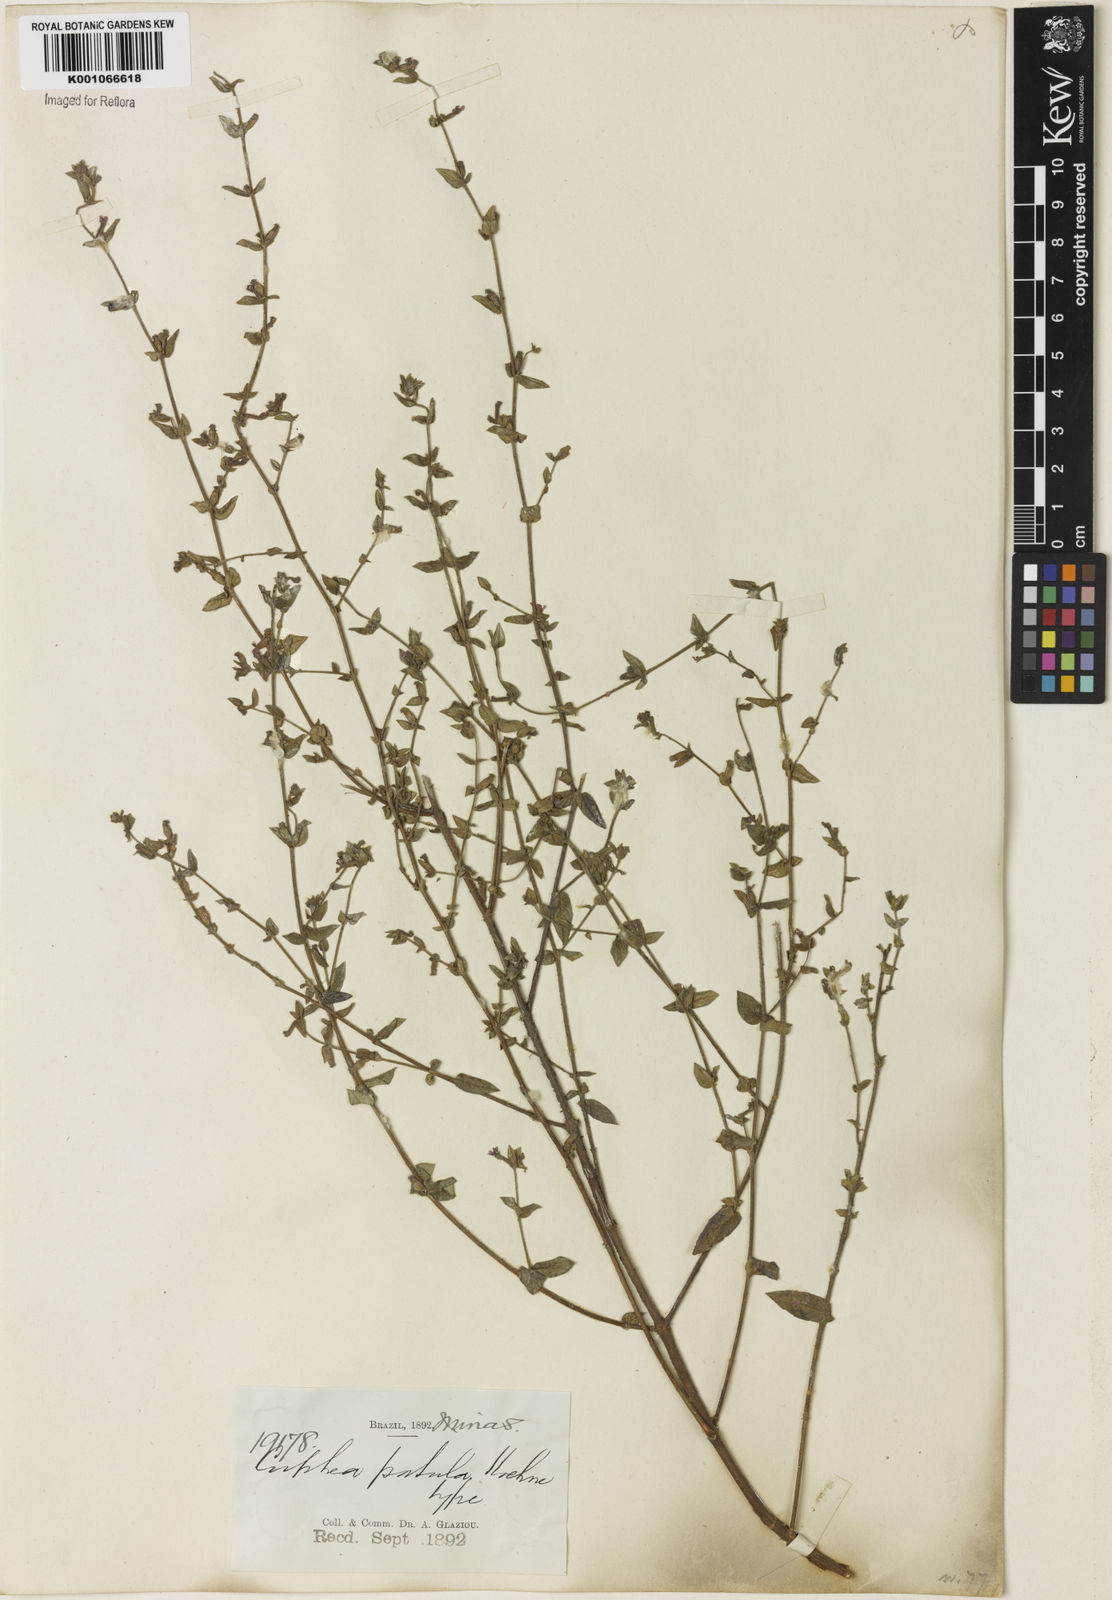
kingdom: Plantae
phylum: Tracheophyta
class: Magnoliopsida
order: Myrtales
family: Lythraceae
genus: Cuphea
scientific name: Cuphea patula
